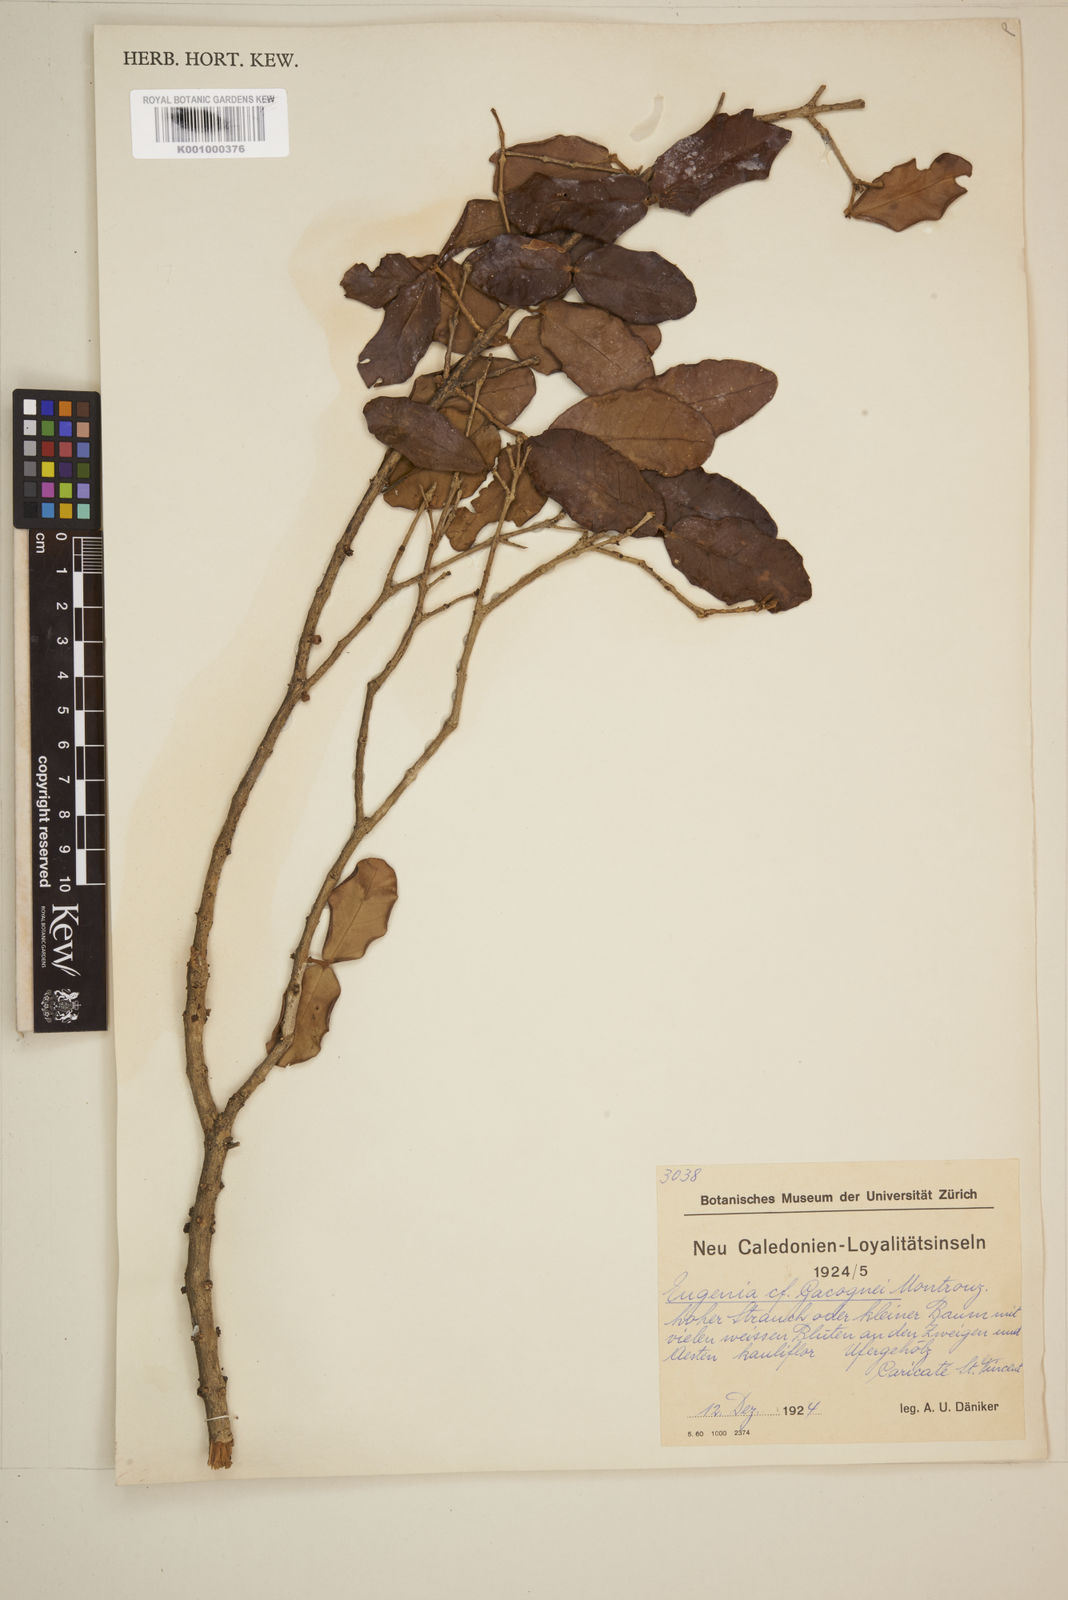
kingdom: Plantae
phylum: Tracheophyta
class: Magnoliopsida
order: Myrtales
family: Myrtaceae
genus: Eugenia
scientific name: Eugenia gacognei
